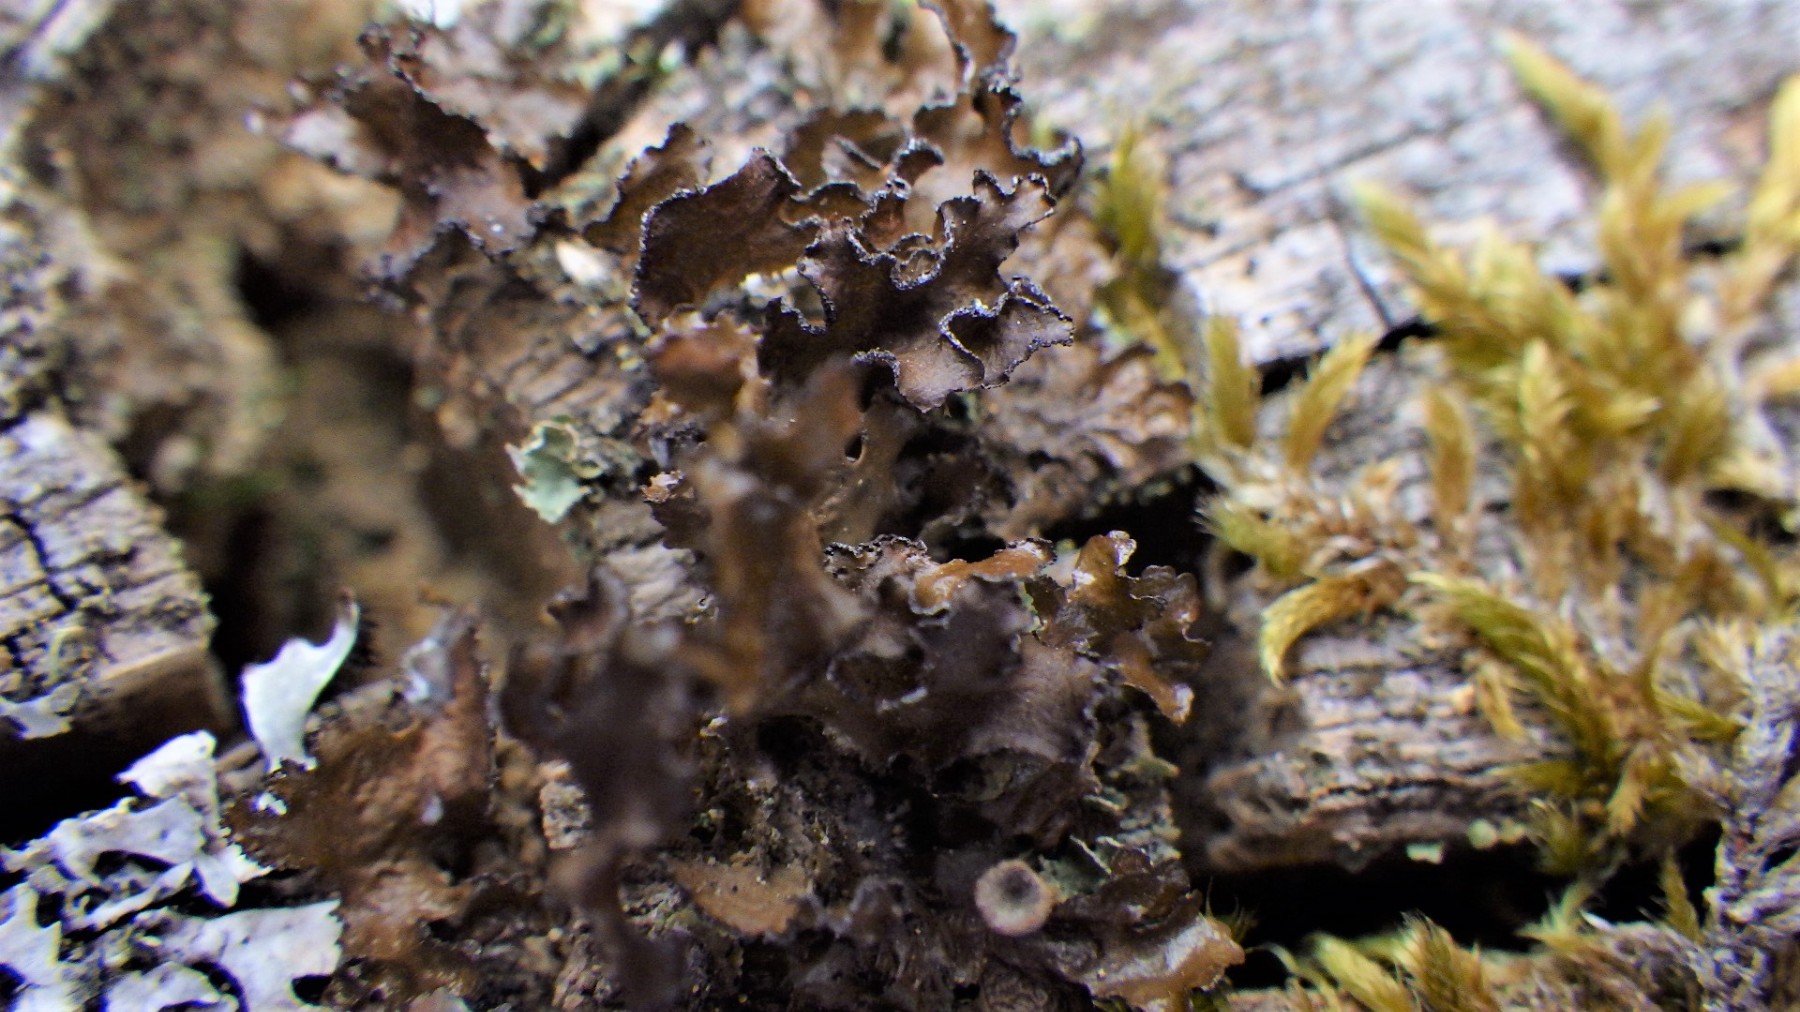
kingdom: Fungi
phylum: Ascomycota
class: Lecanoromycetes
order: Lecanorales
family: Parmeliaceae
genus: Nephromopsis
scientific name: Nephromopsis chlorophylla
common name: olivenbrun kruslav
